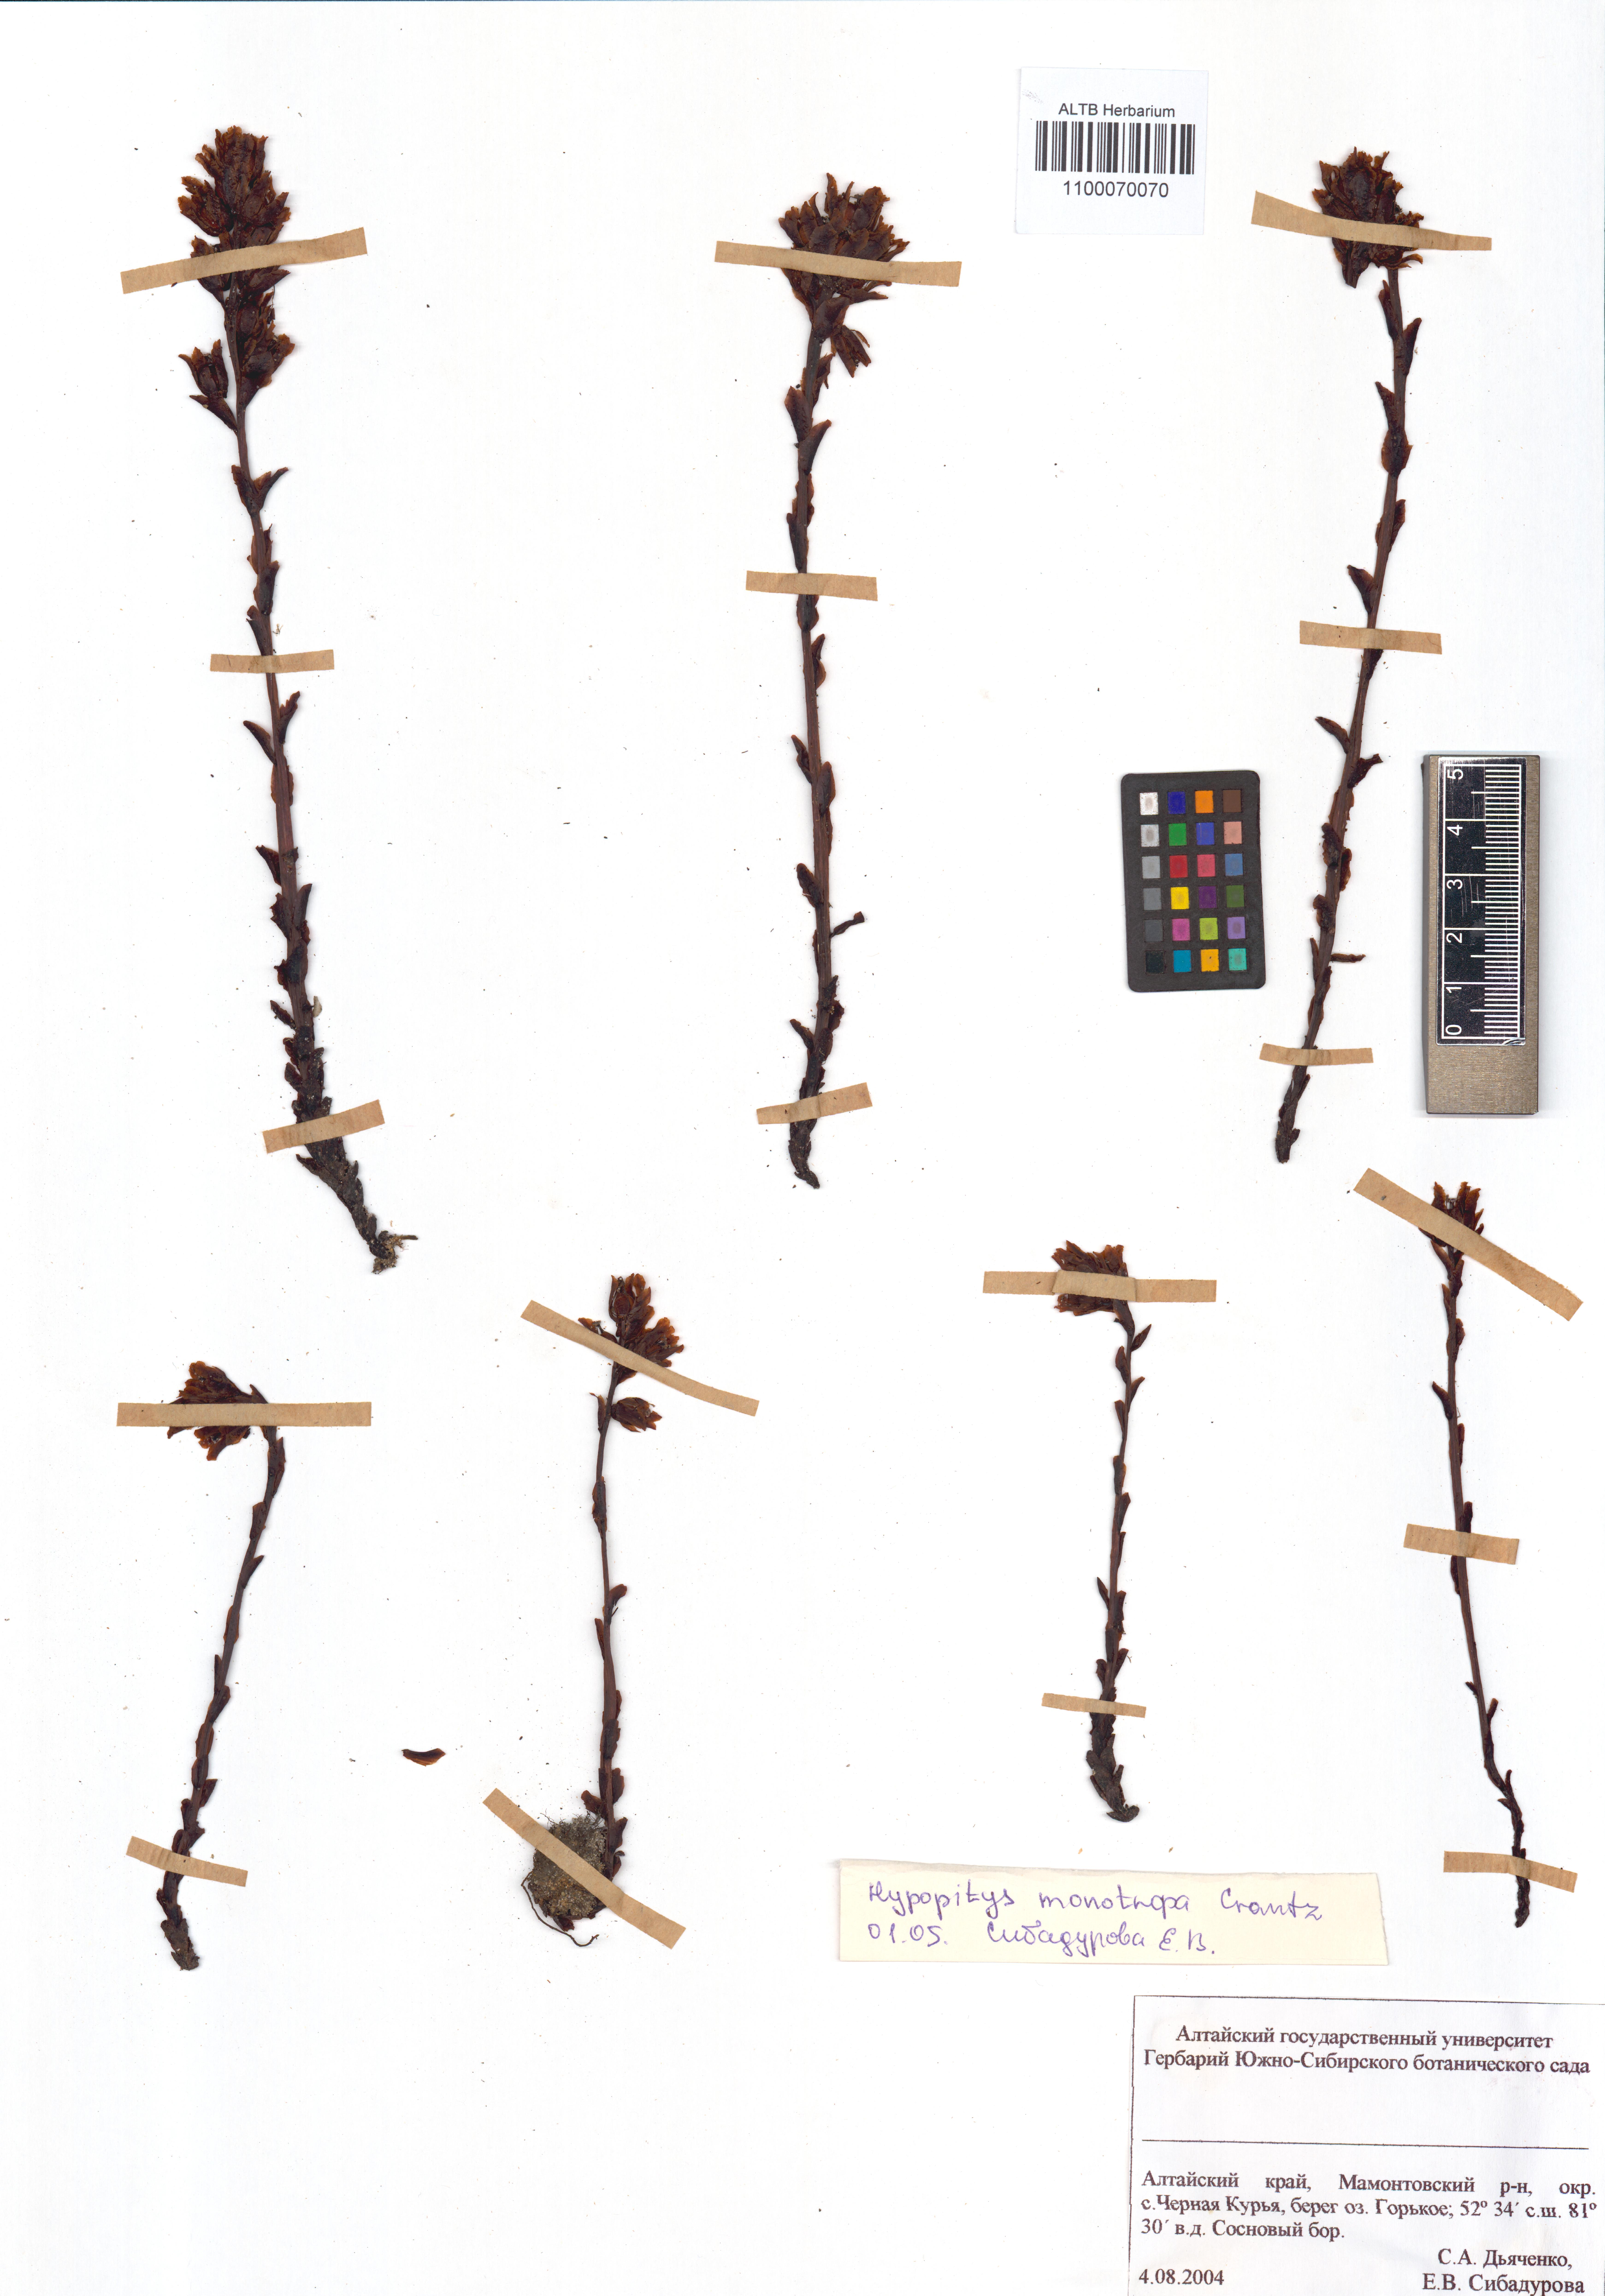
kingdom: Plantae
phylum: Tracheophyta
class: Magnoliopsida
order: Ericales
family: Ericaceae
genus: Hypopitys
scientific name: Hypopitys monotropa
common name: Yellow bird's-nest
